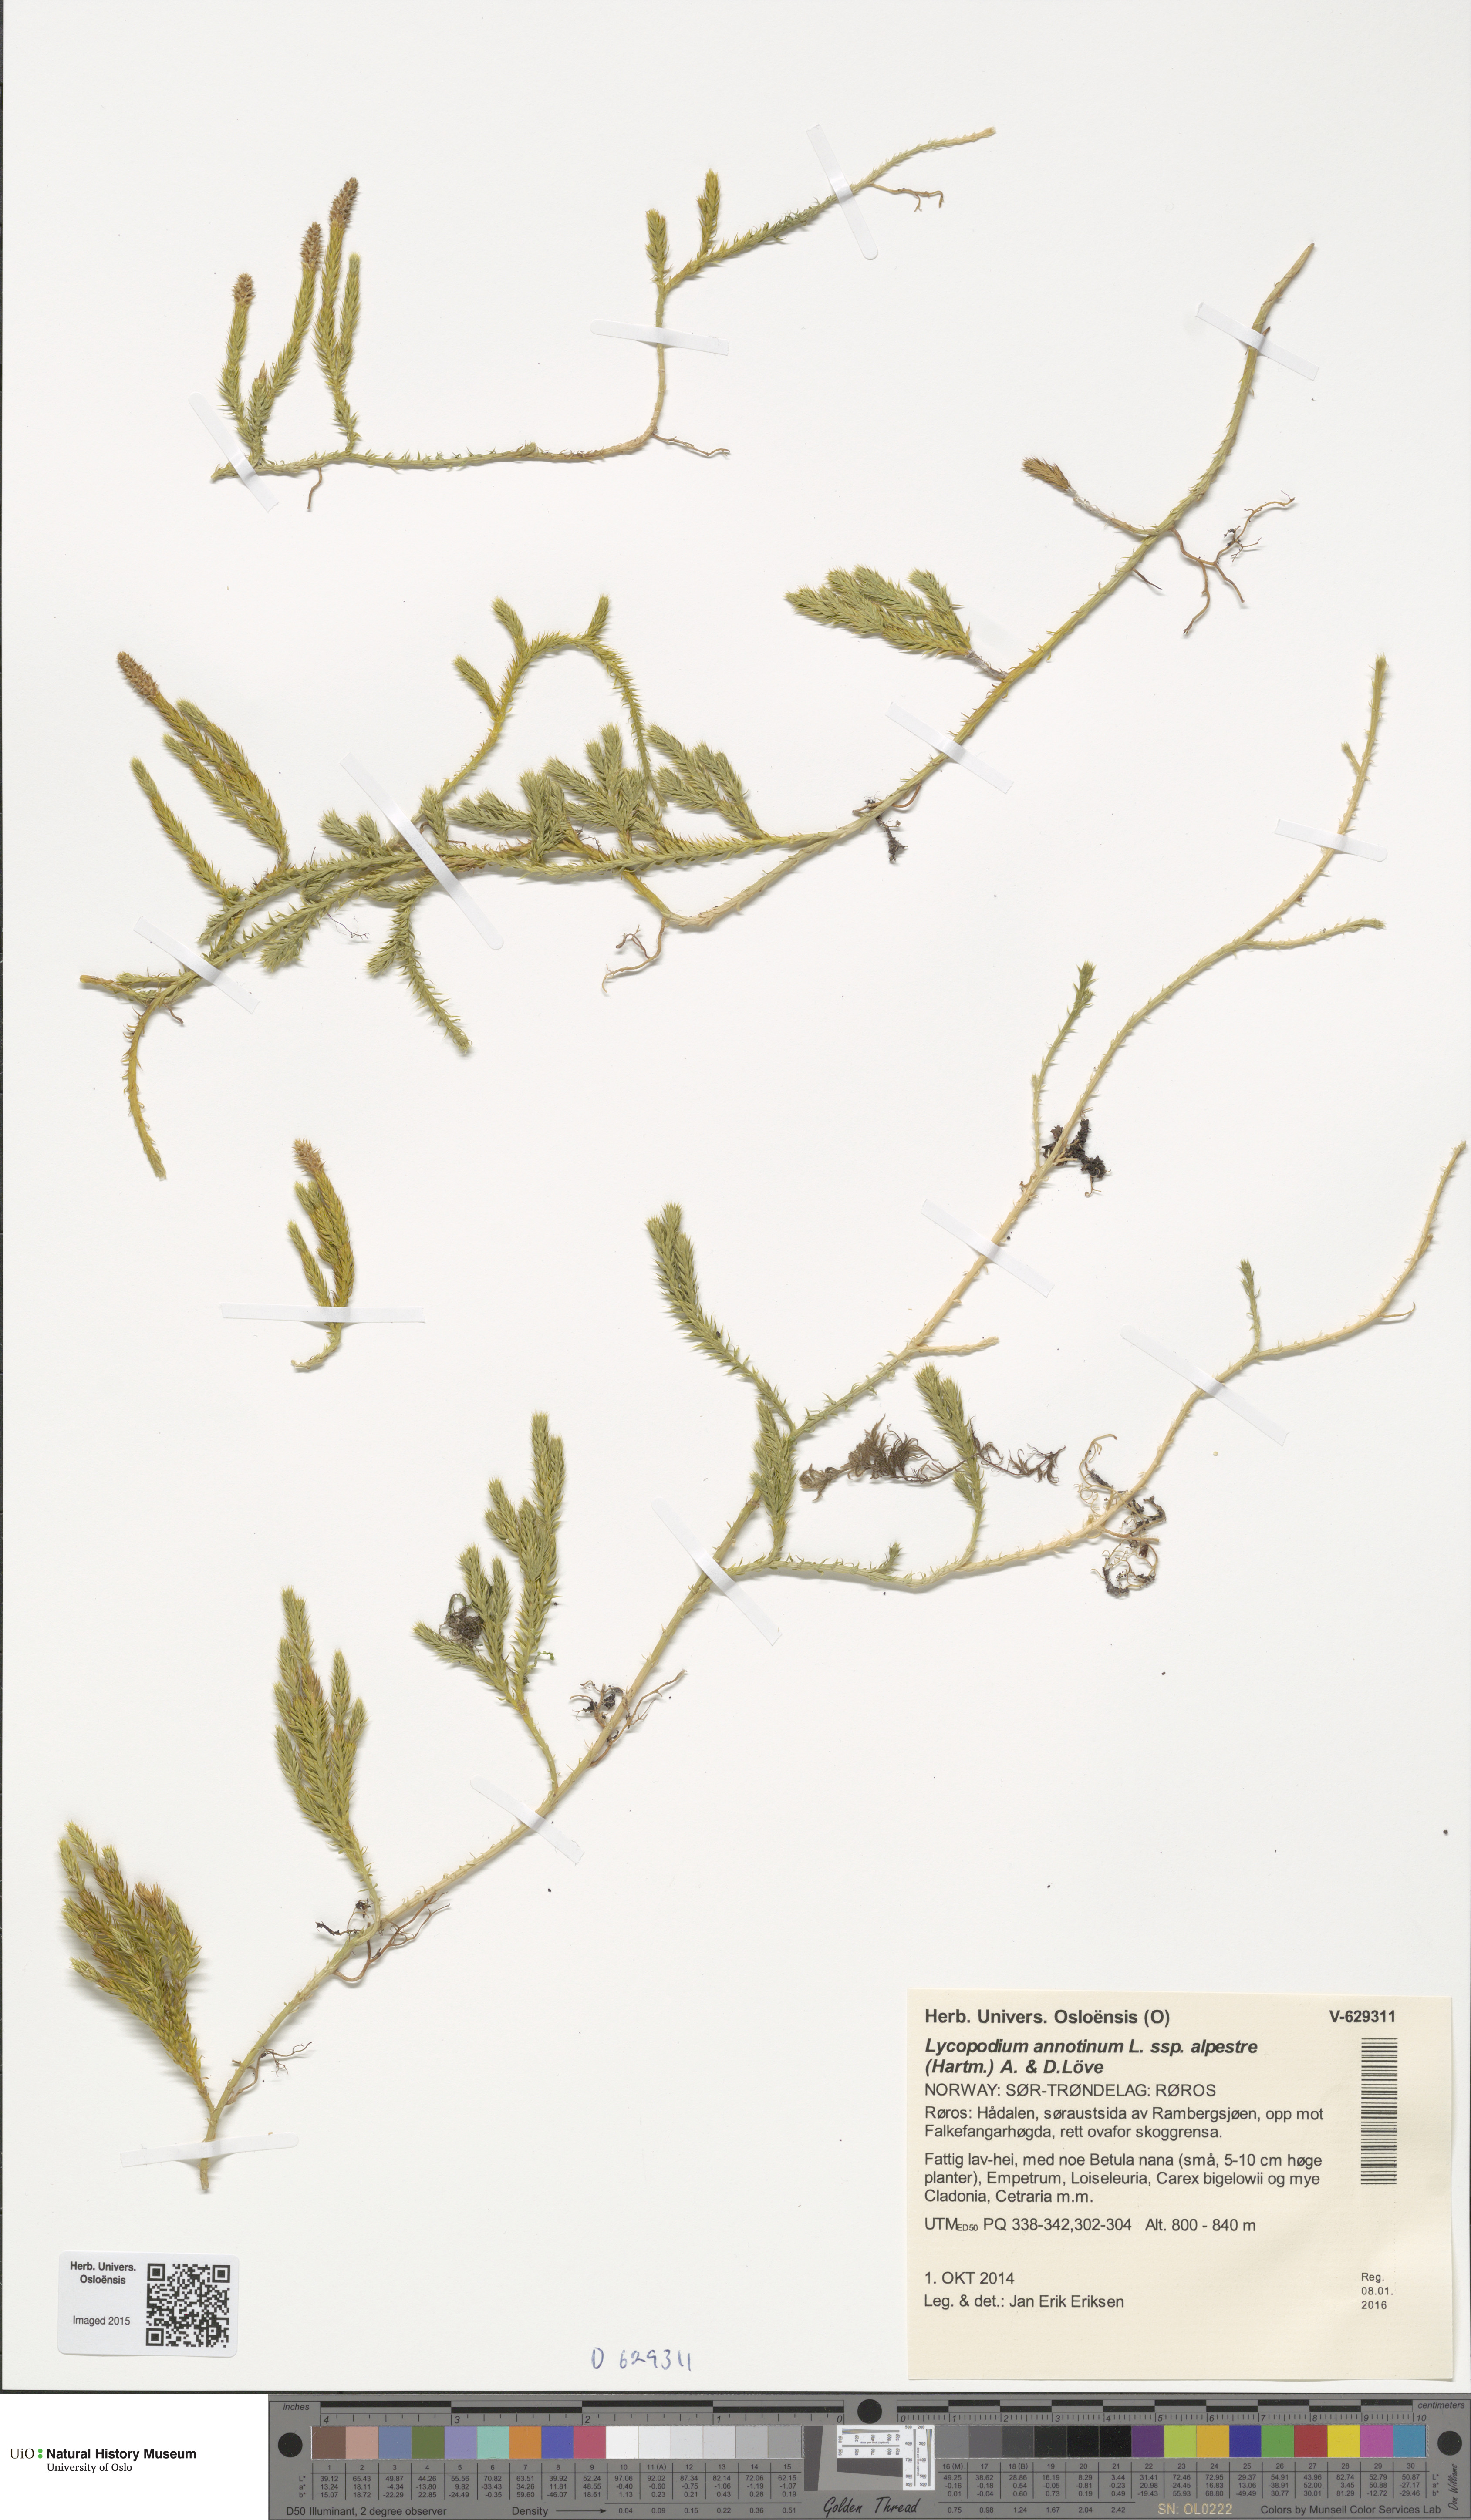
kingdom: Plantae
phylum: Tracheophyta
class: Lycopodiopsida
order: Lycopodiales
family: Lycopodiaceae
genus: Spinulum
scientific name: Spinulum annotinum
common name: Interrupted club-moss
